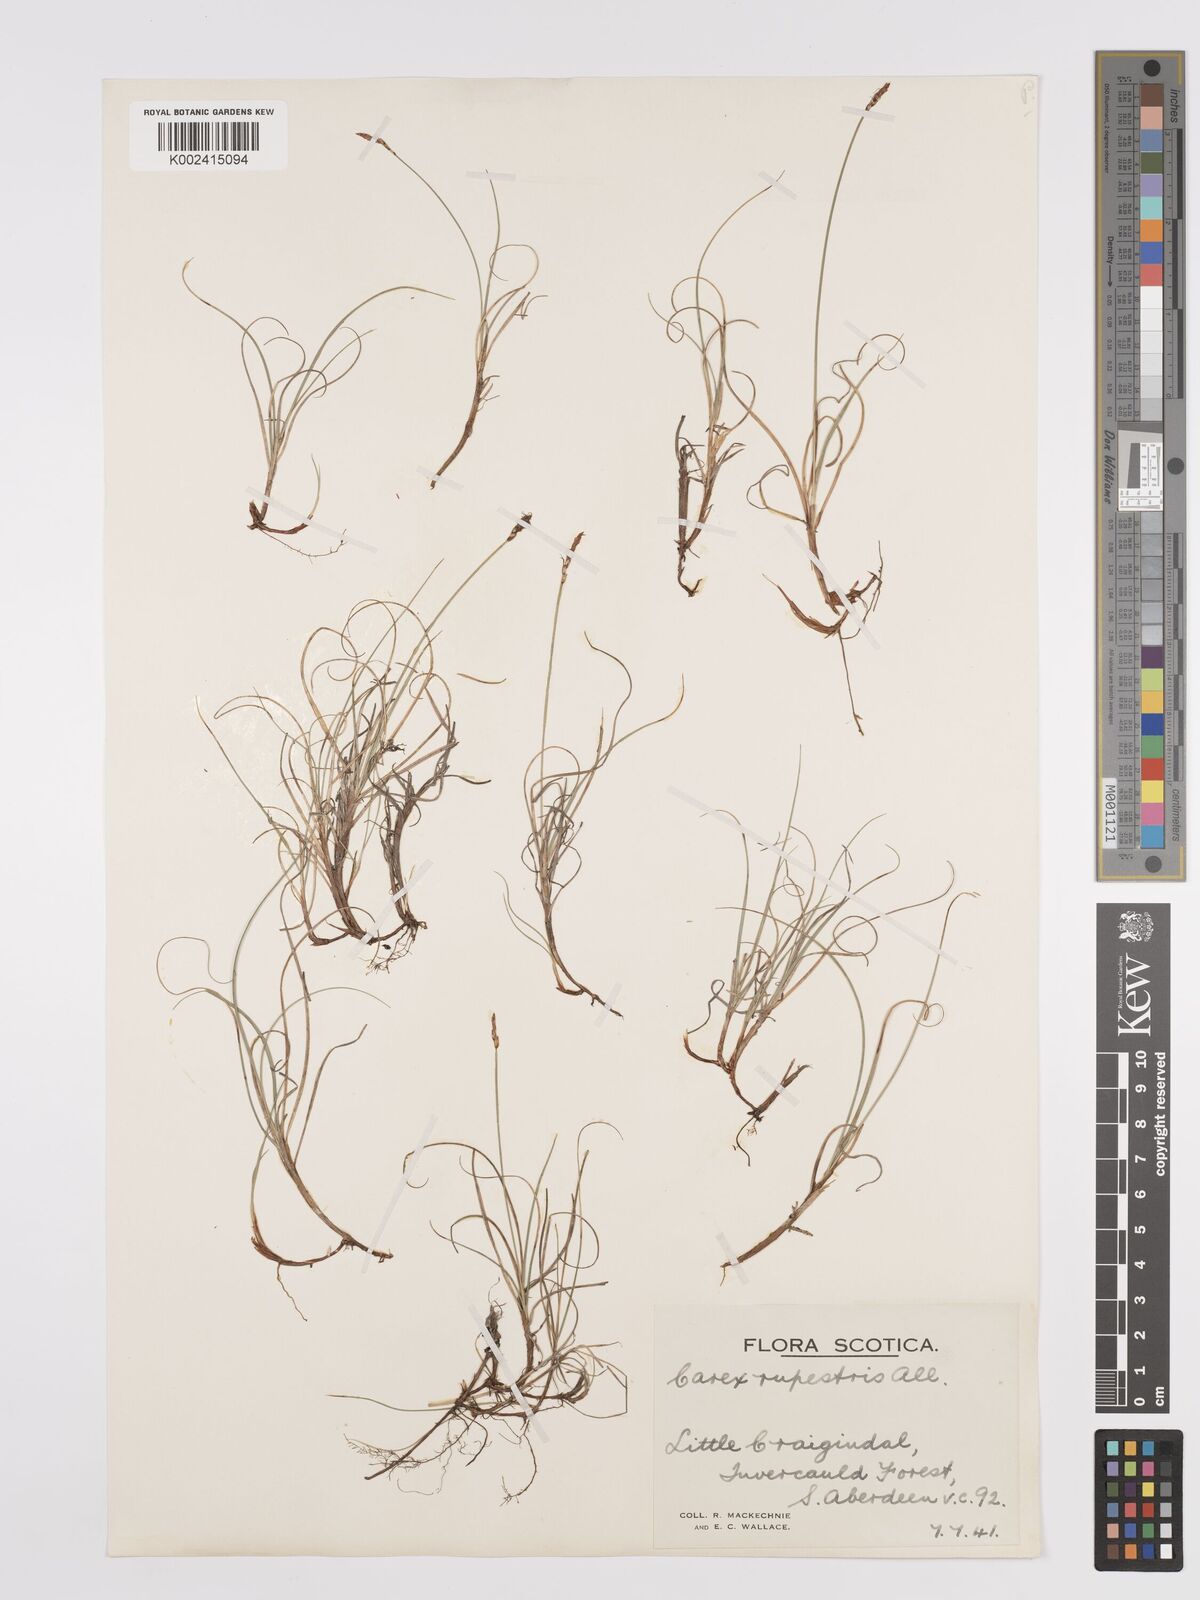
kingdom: Plantae
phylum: Tracheophyta
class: Liliopsida
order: Poales
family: Cyperaceae
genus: Carex
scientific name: Carex rupestris
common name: Rock sedge
